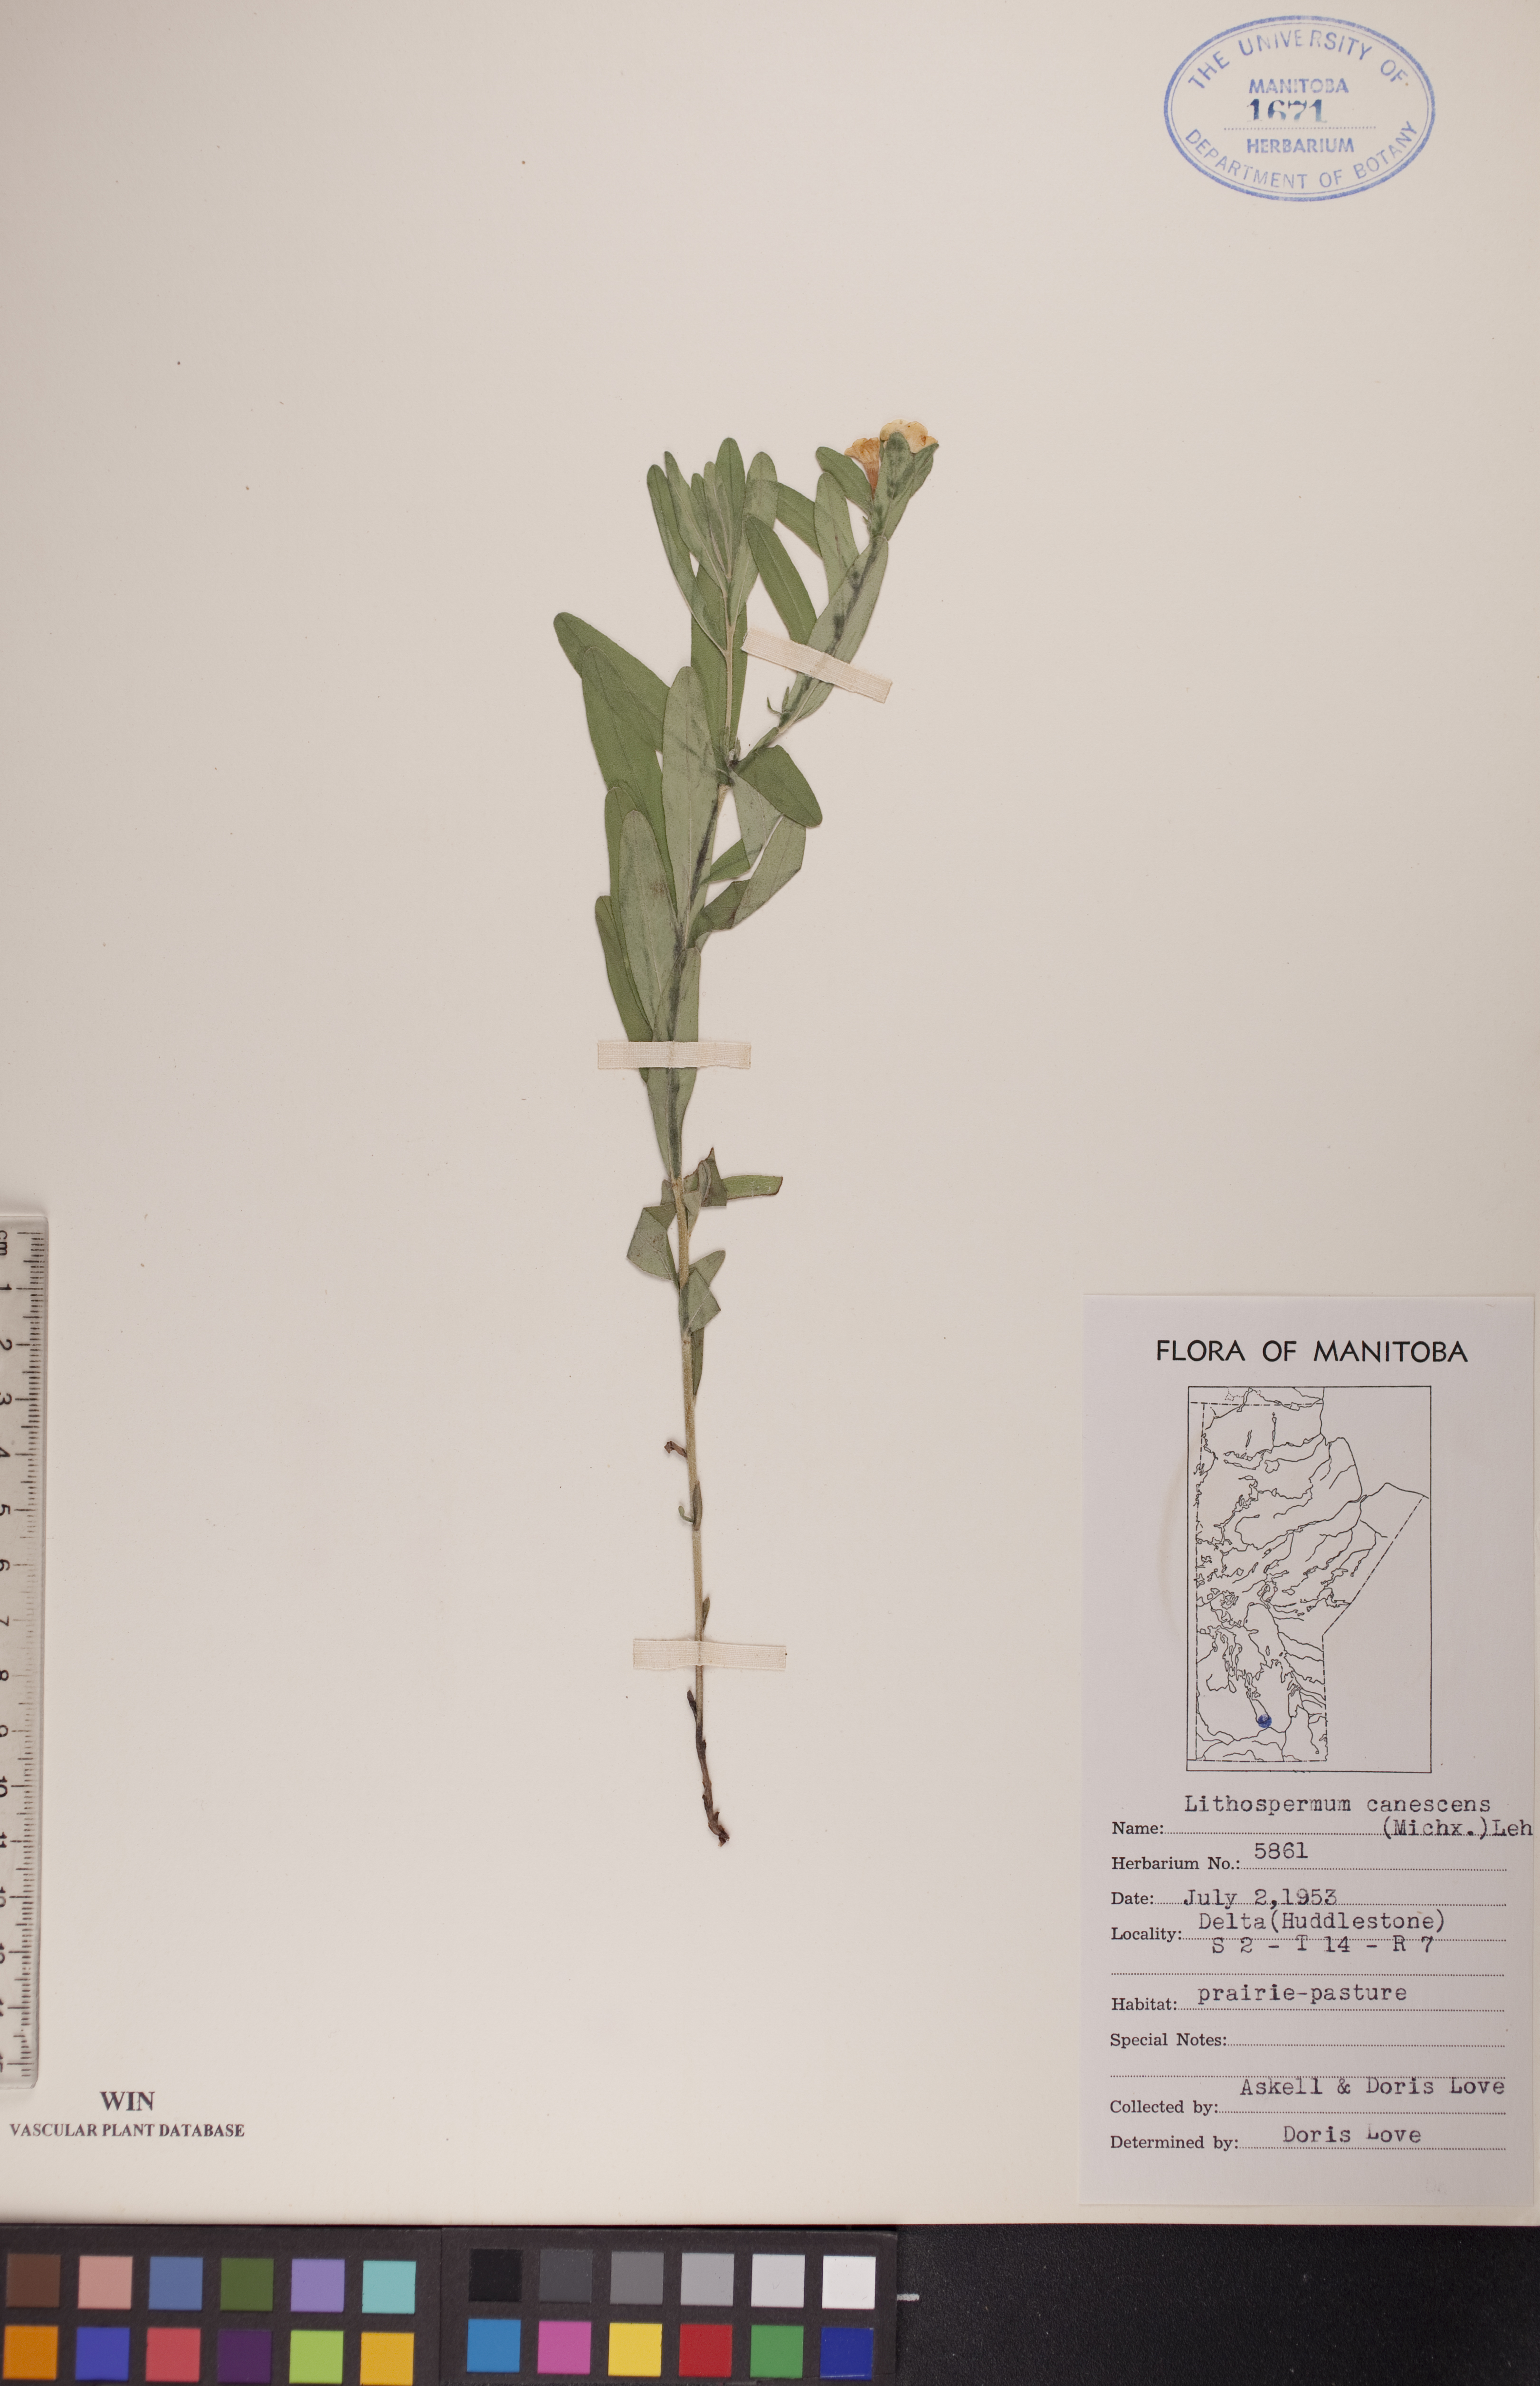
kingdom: Plantae
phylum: Tracheophyta
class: Magnoliopsida
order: Boraginales
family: Boraginaceae
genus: Lithospermum
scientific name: Lithospermum canescens
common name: Hoary puccoon
